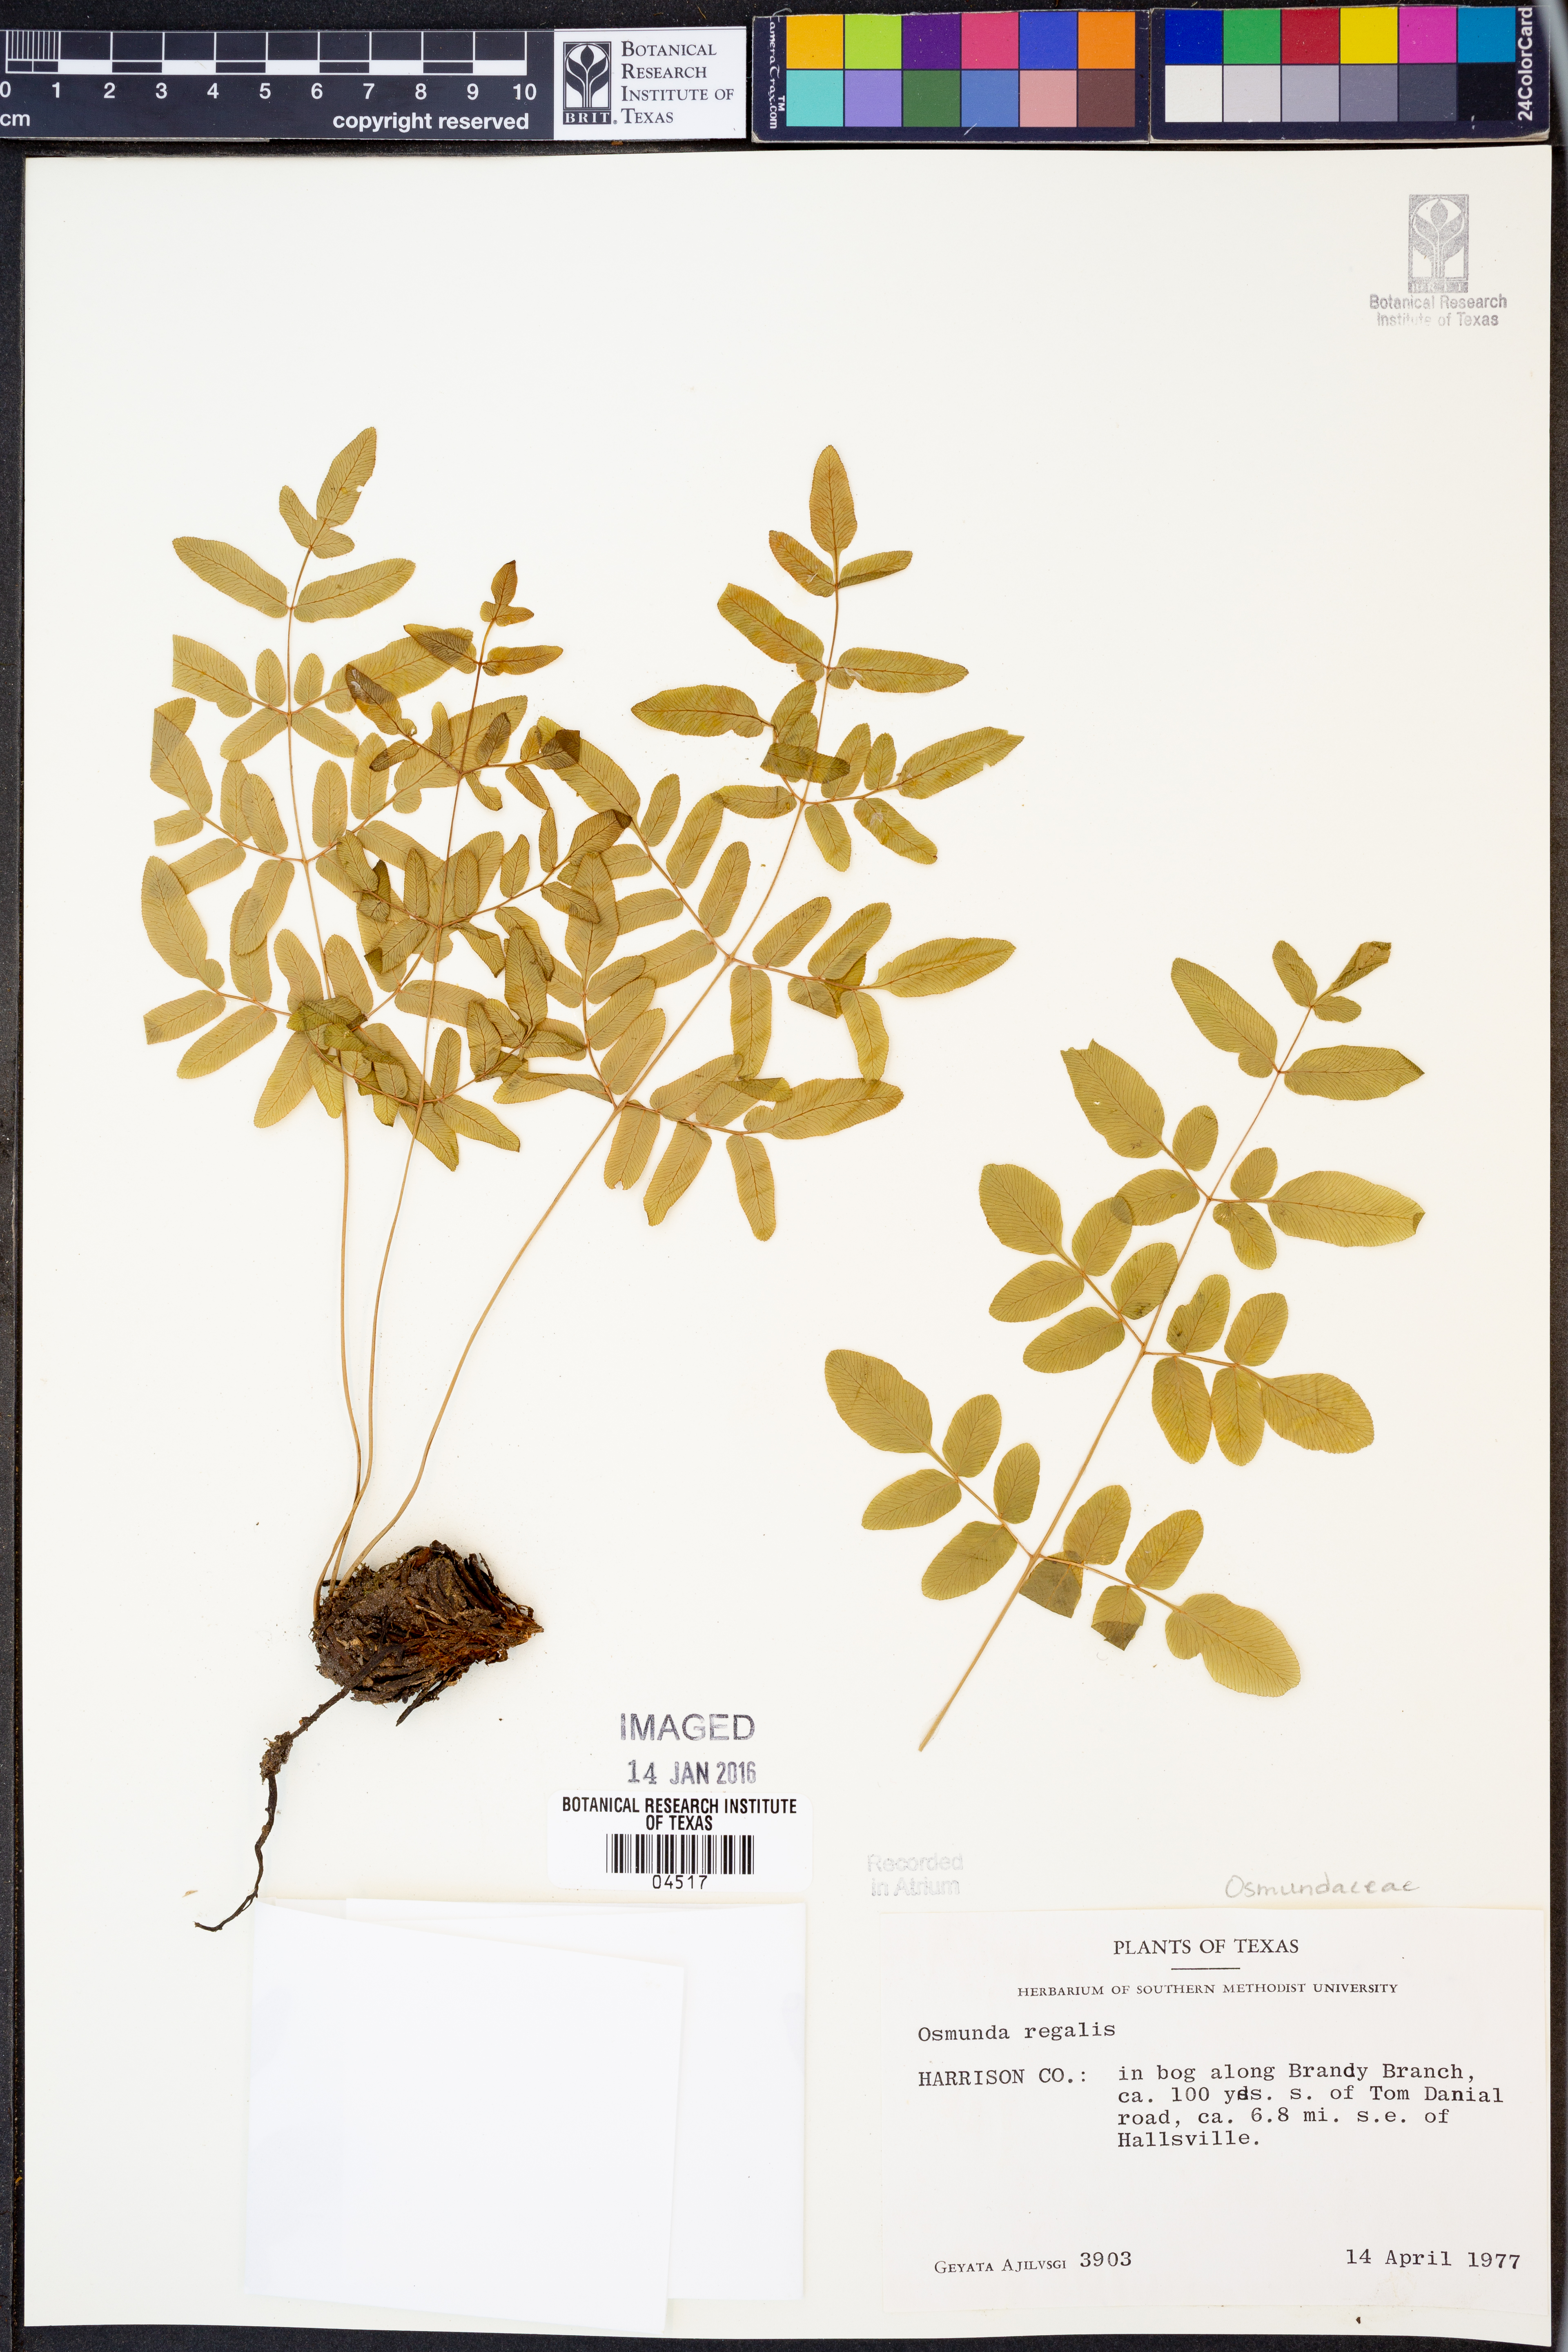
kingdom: Plantae
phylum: Tracheophyta
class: Polypodiopsida
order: Osmundales
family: Osmundaceae
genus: Osmunda
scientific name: Osmunda regalis
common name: Royal fern
